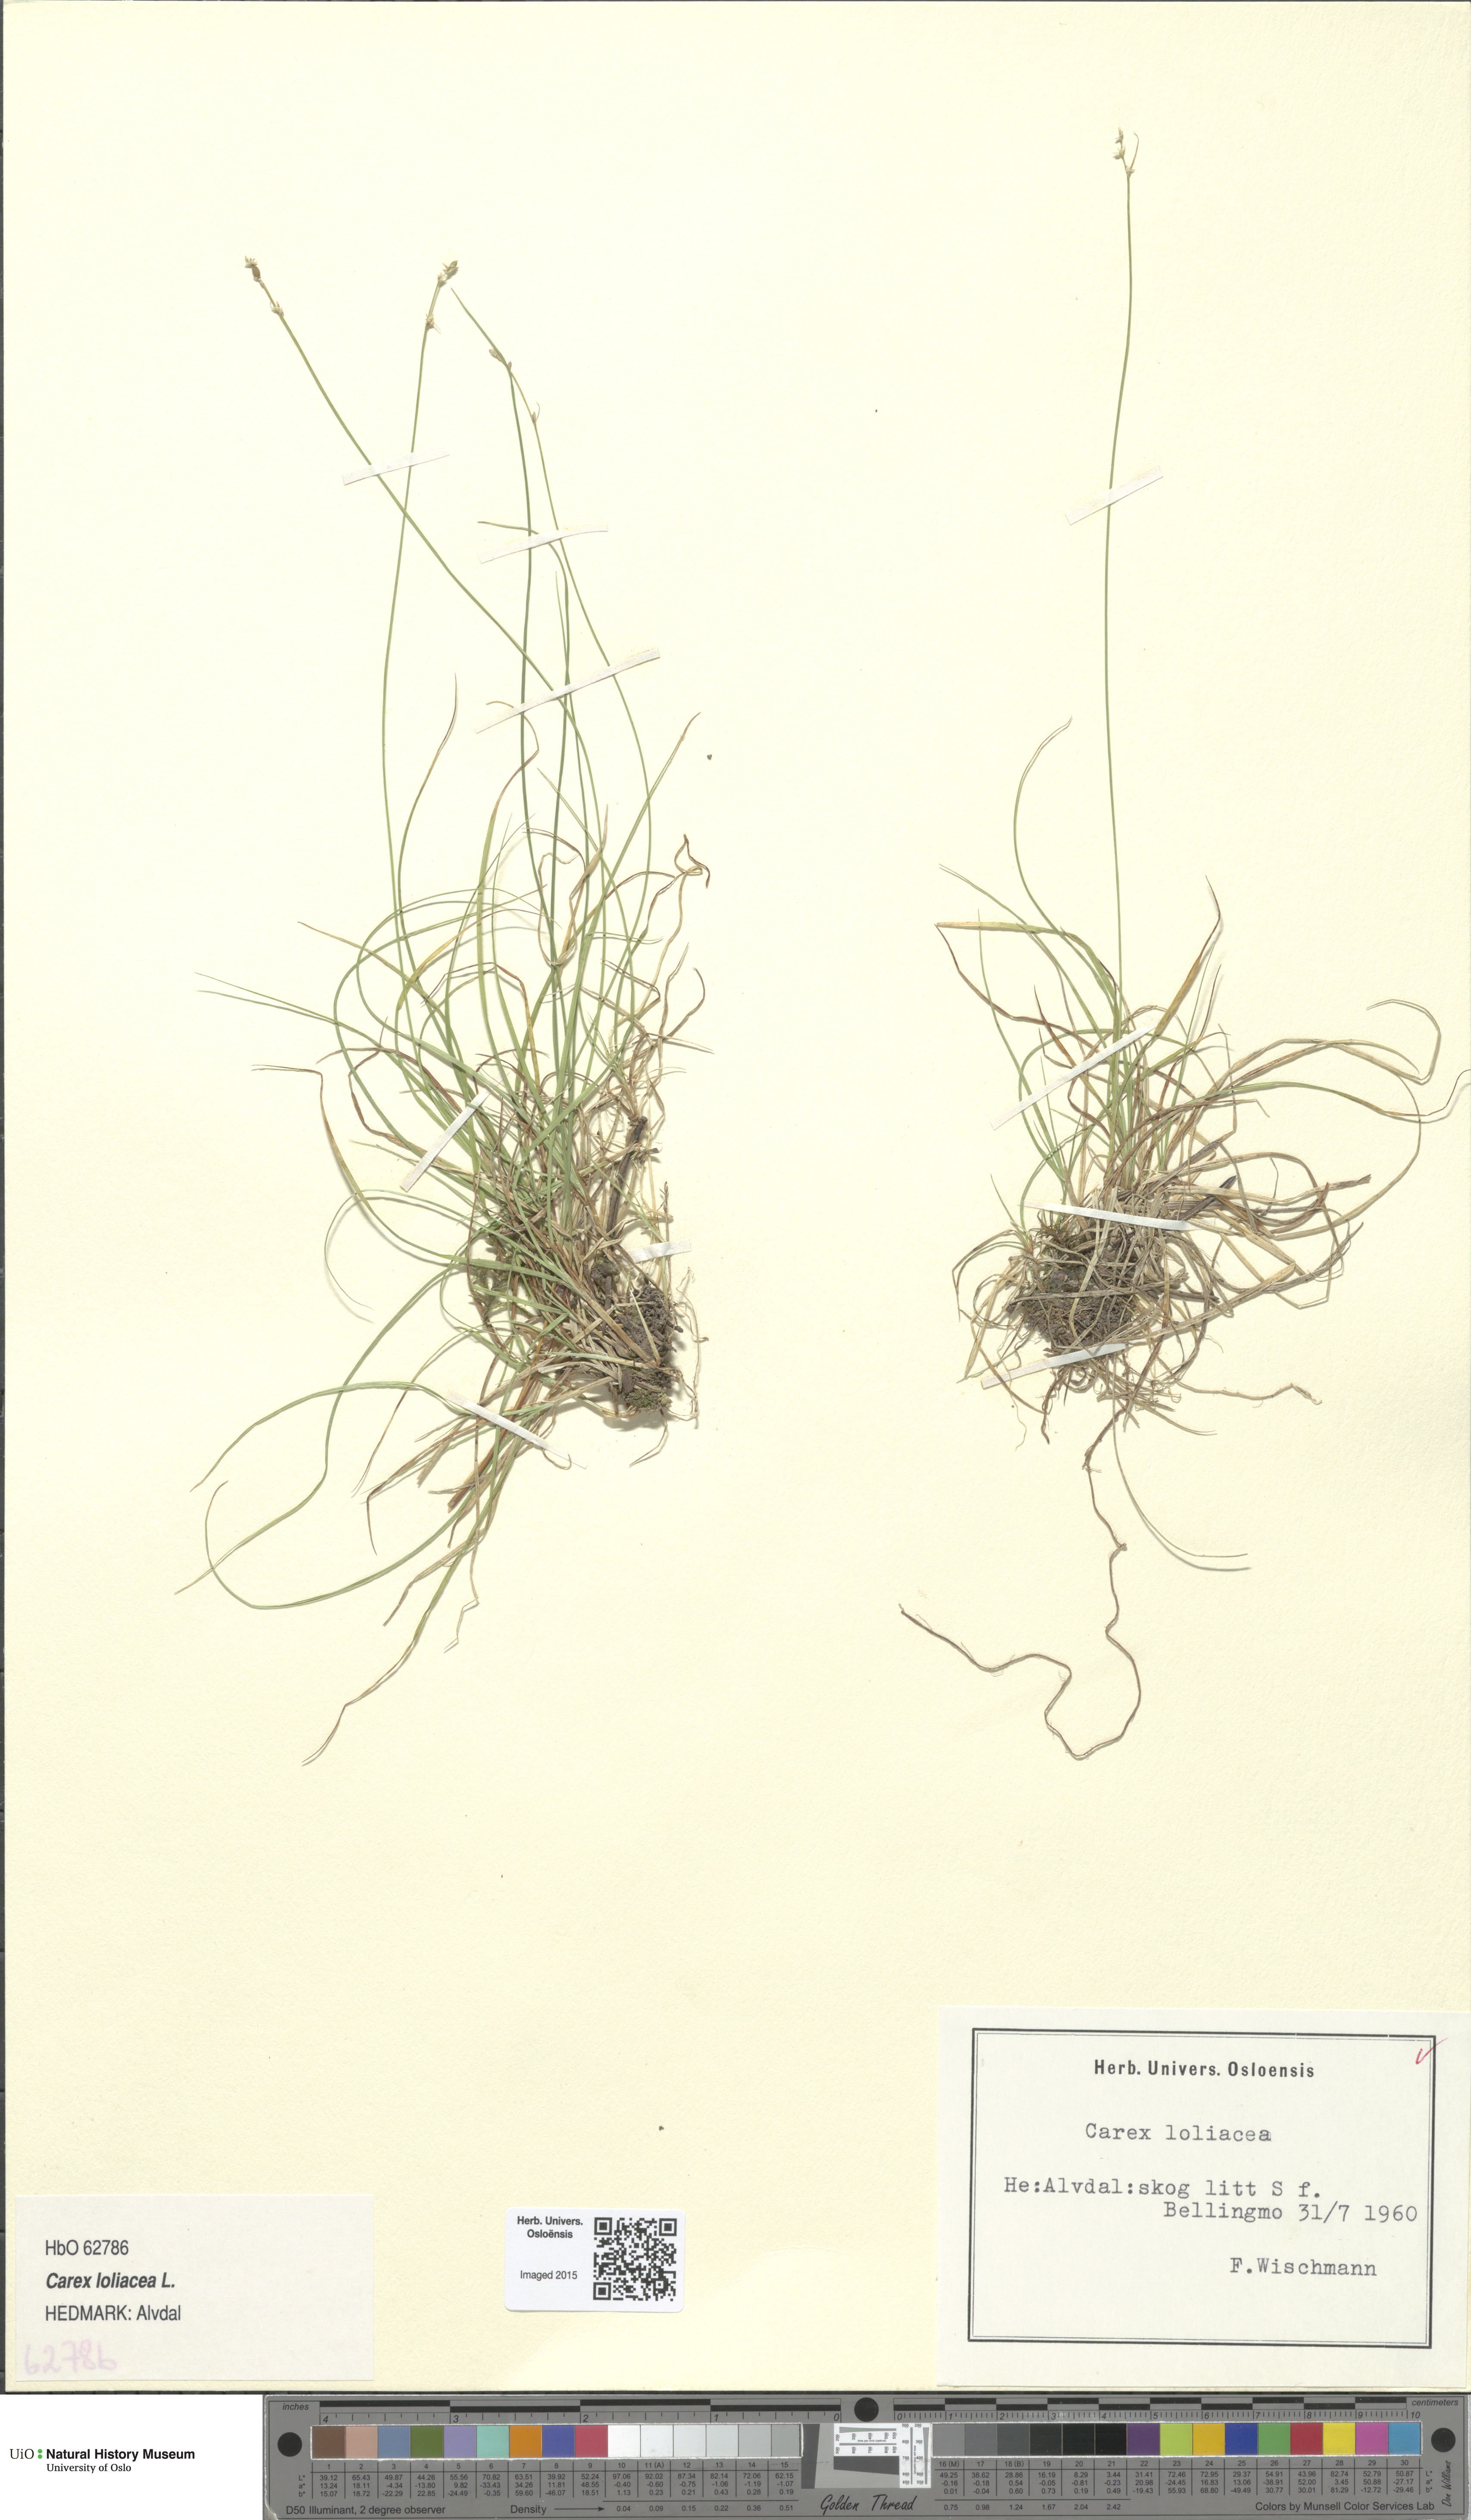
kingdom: Plantae
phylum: Tracheophyta
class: Liliopsida
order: Poales
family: Cyperaceae
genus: Carex
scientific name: Carex loliacea
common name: Ryegrass sedge
